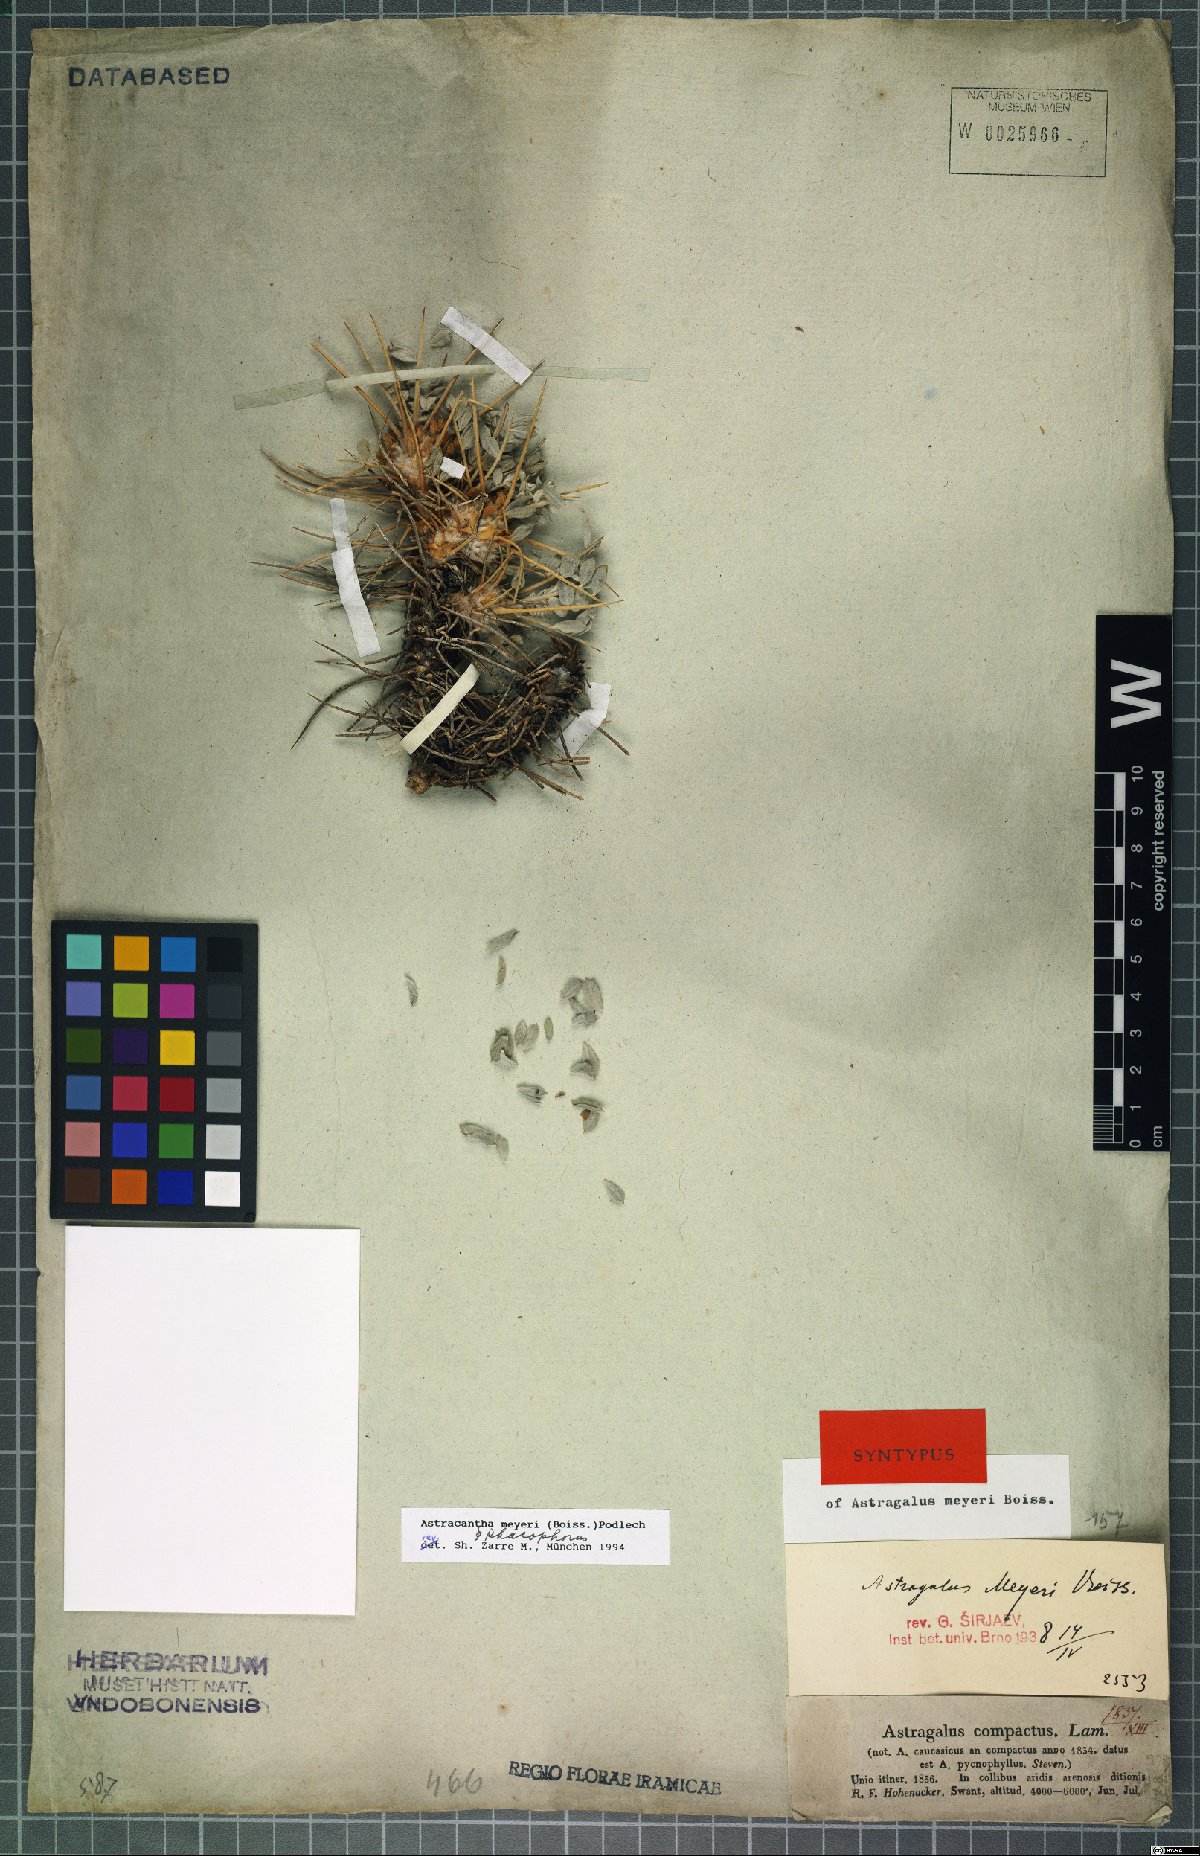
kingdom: Plantae
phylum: Tracheophyta
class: Magnoliopsida
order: Fabales
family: Fabaceae
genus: Astragalus
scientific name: Astragalus meyeri
